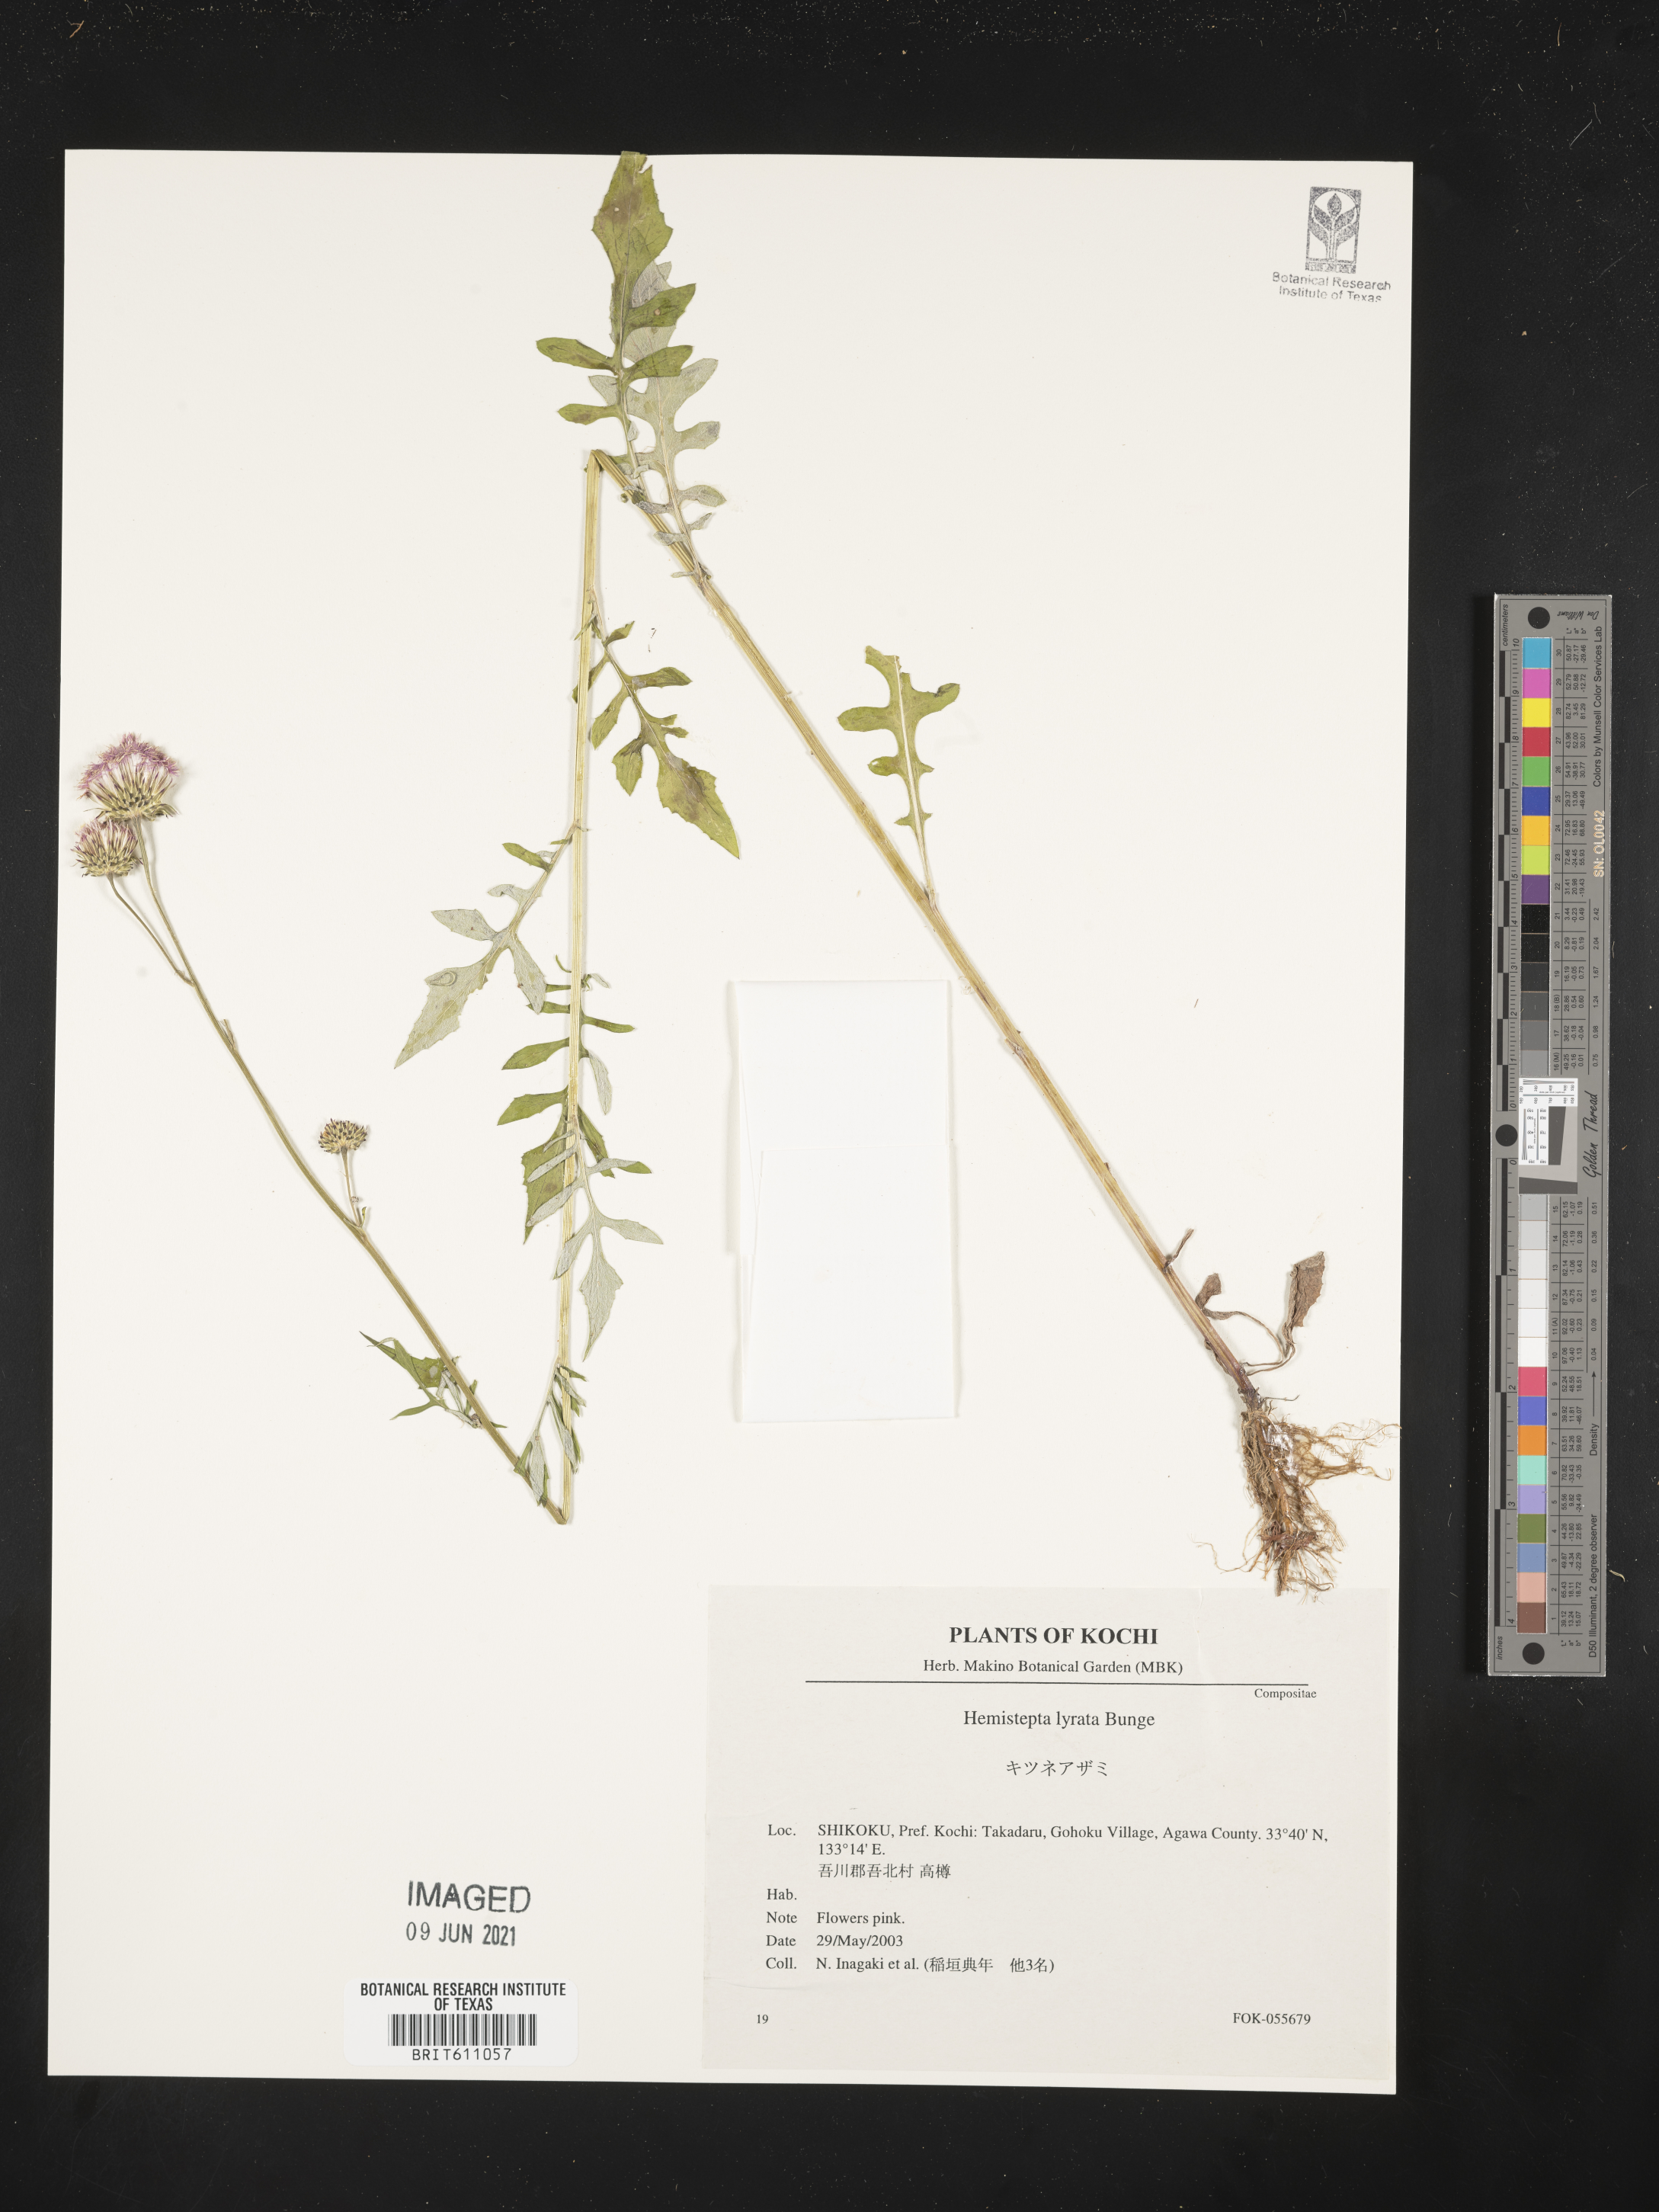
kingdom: Plantae
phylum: Tracheophyta
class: Magnoliopsida
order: Asterales
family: Asteraceae
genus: Saussurea
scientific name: Saussurea lyrata
